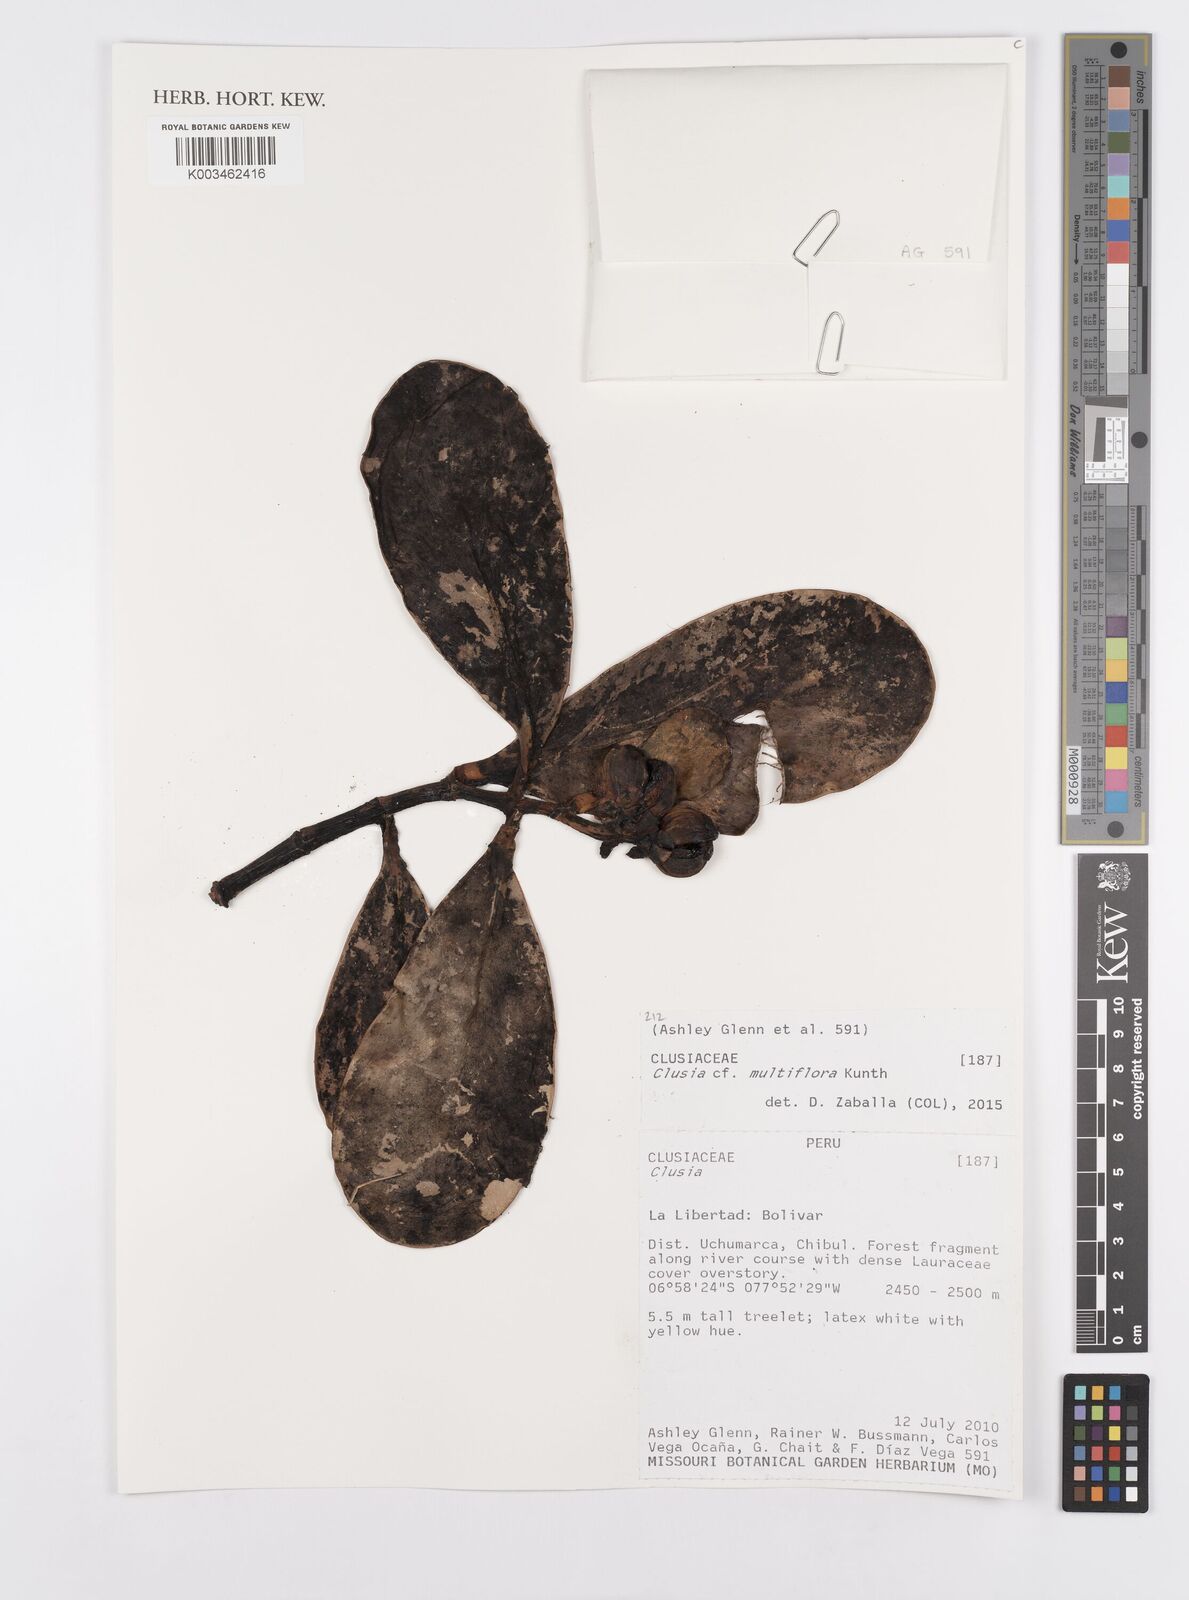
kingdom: Plantae
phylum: Tracheophyta
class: Magnoliopsida
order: Malpighiales
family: Clusiaceae
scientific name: Clusiaceae
